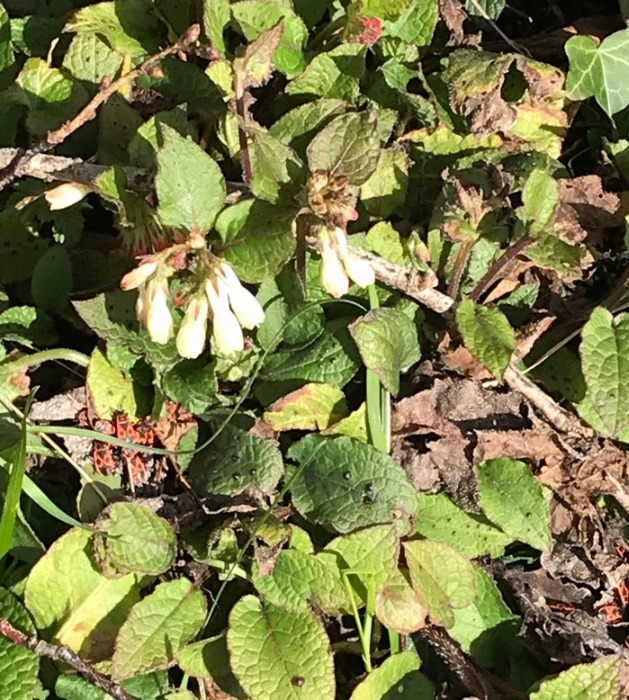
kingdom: Plantae
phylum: Tracheophyta
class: Magnoliopsida
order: Boraginales
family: Boraginaceae
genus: Symphytum
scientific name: Symphytum grandiflorum
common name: Storblomstret kulsukker
